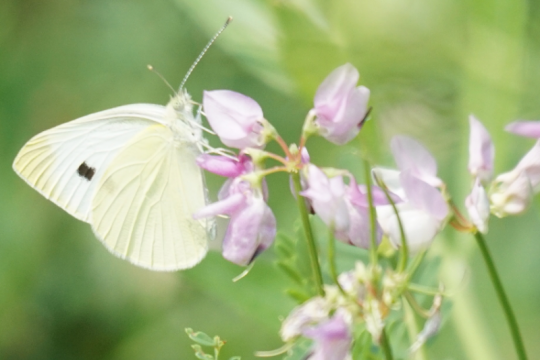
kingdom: Animalia
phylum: Arthropoda
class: Insecta
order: Lepidoptera
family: Pieridae
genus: Pieris
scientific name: Pieris rapae
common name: Cabbage White
